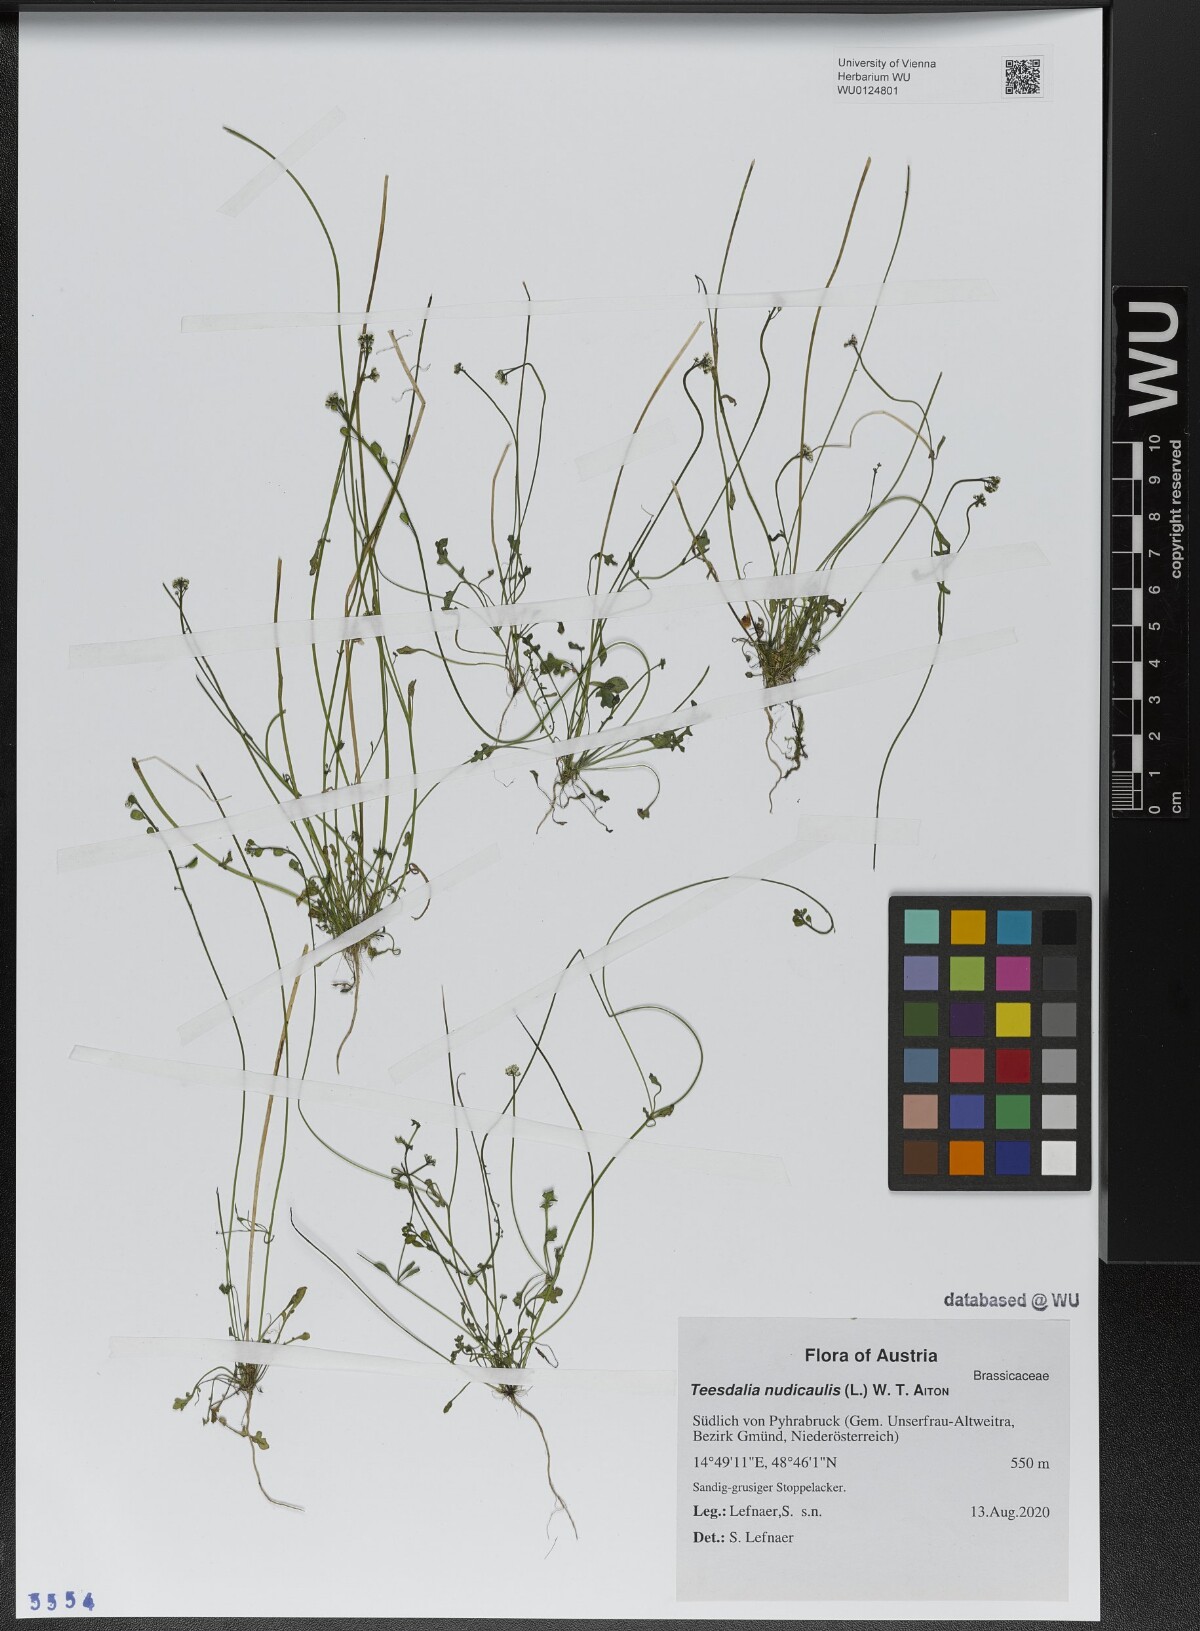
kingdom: Plantae
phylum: Tracheophyta
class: Magnoliopsida
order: Brassicales
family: Brassicaceae
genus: Teesdalia
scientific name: Teesdalia nudicaulis
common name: Shepherd's cress
